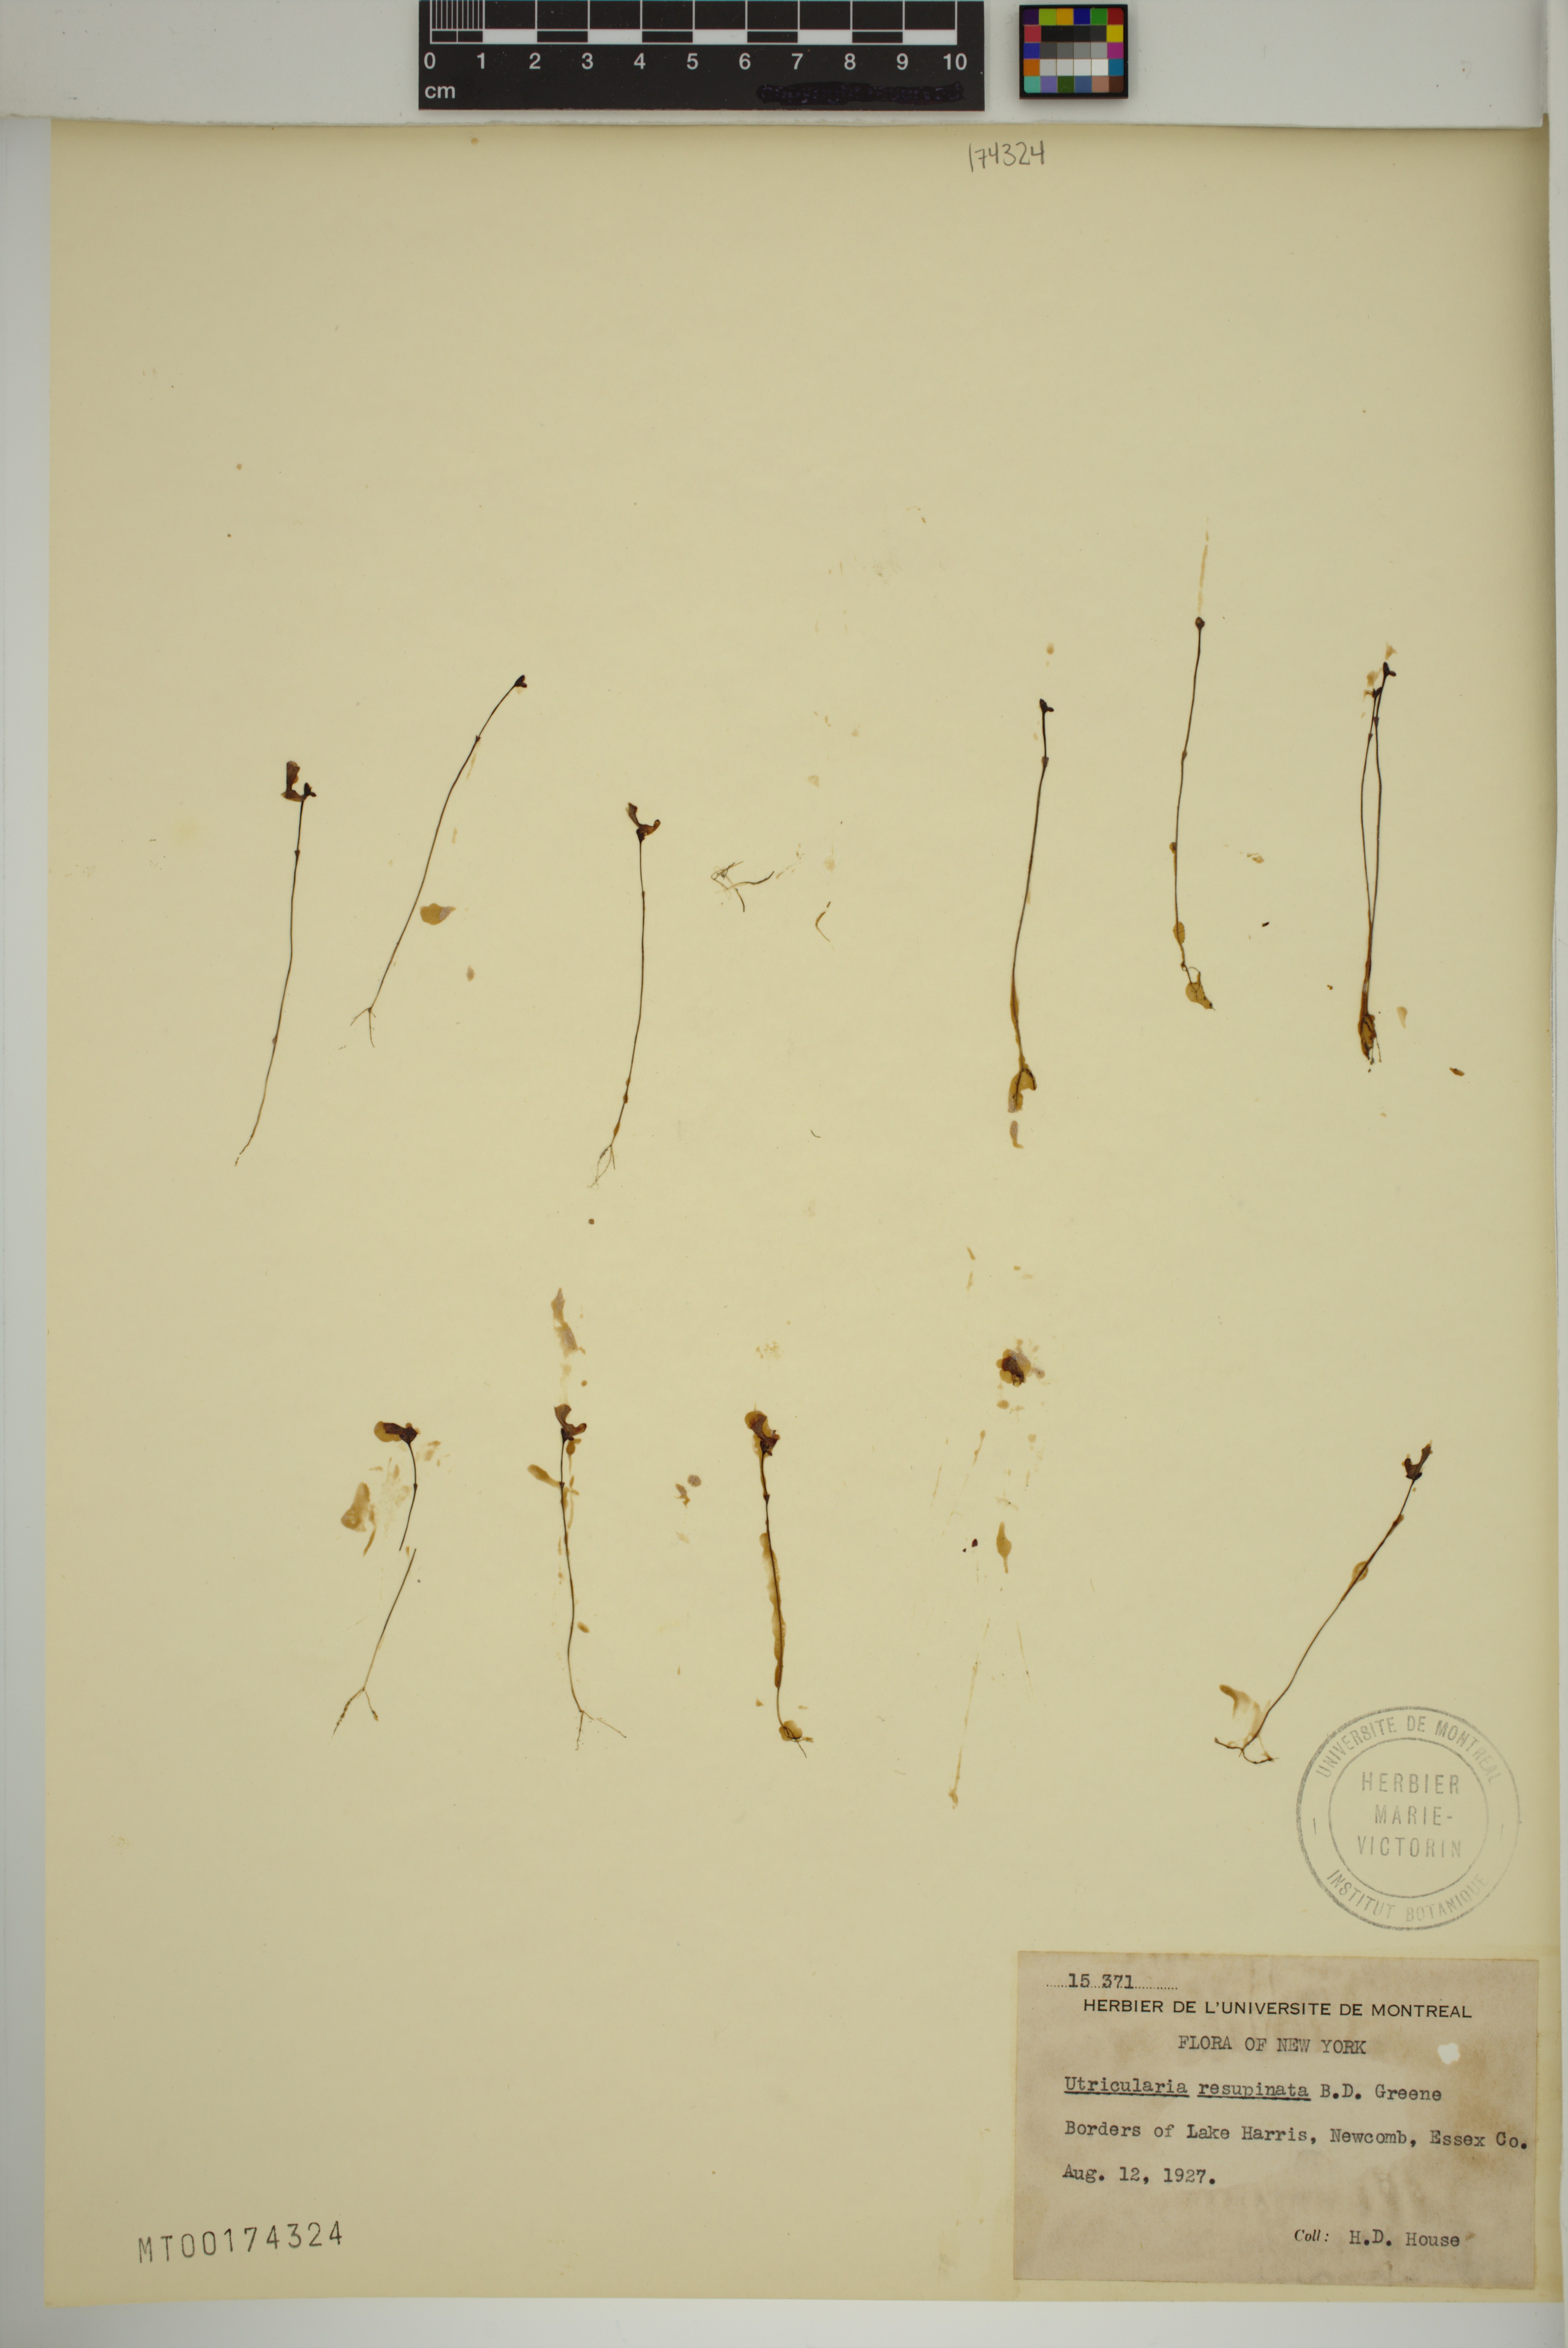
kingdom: Plantae
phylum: Tracheophyta
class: Magnoliopsida
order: Lamiales
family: Lentibulariaceae
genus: Utricularia
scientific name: Utricularia resupinata
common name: Northeastern bladderwort
